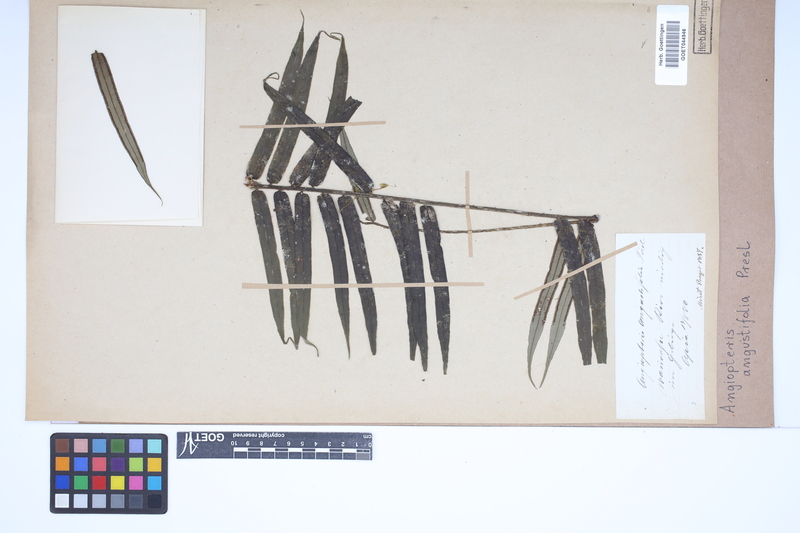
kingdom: Plantae
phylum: Tracheophyta
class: Polypodiopsida
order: Marattiales
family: Marattiaceae
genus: Angiopteris
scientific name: Angiopteris angustifolia
